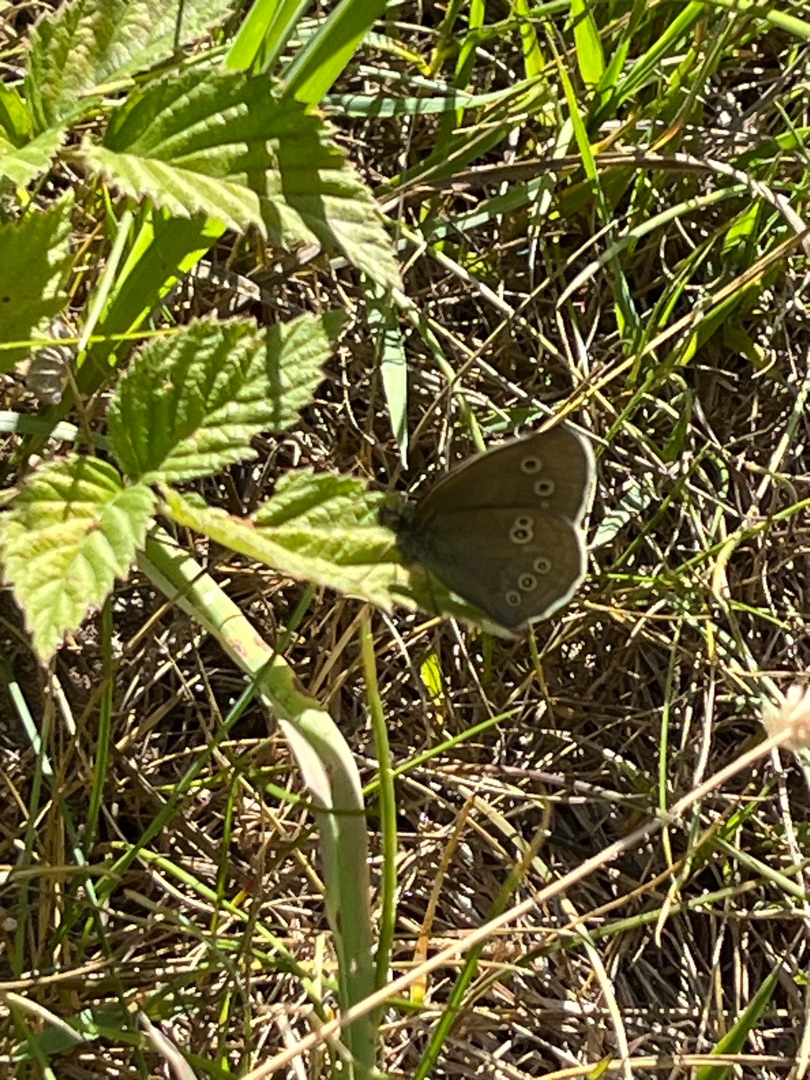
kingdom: Animalia
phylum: Arthropoda
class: Insecta
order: Lepidoptera
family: Nymphalidae
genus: Aphantopus
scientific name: Aphantopus hyperantus
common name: Engrandøje
